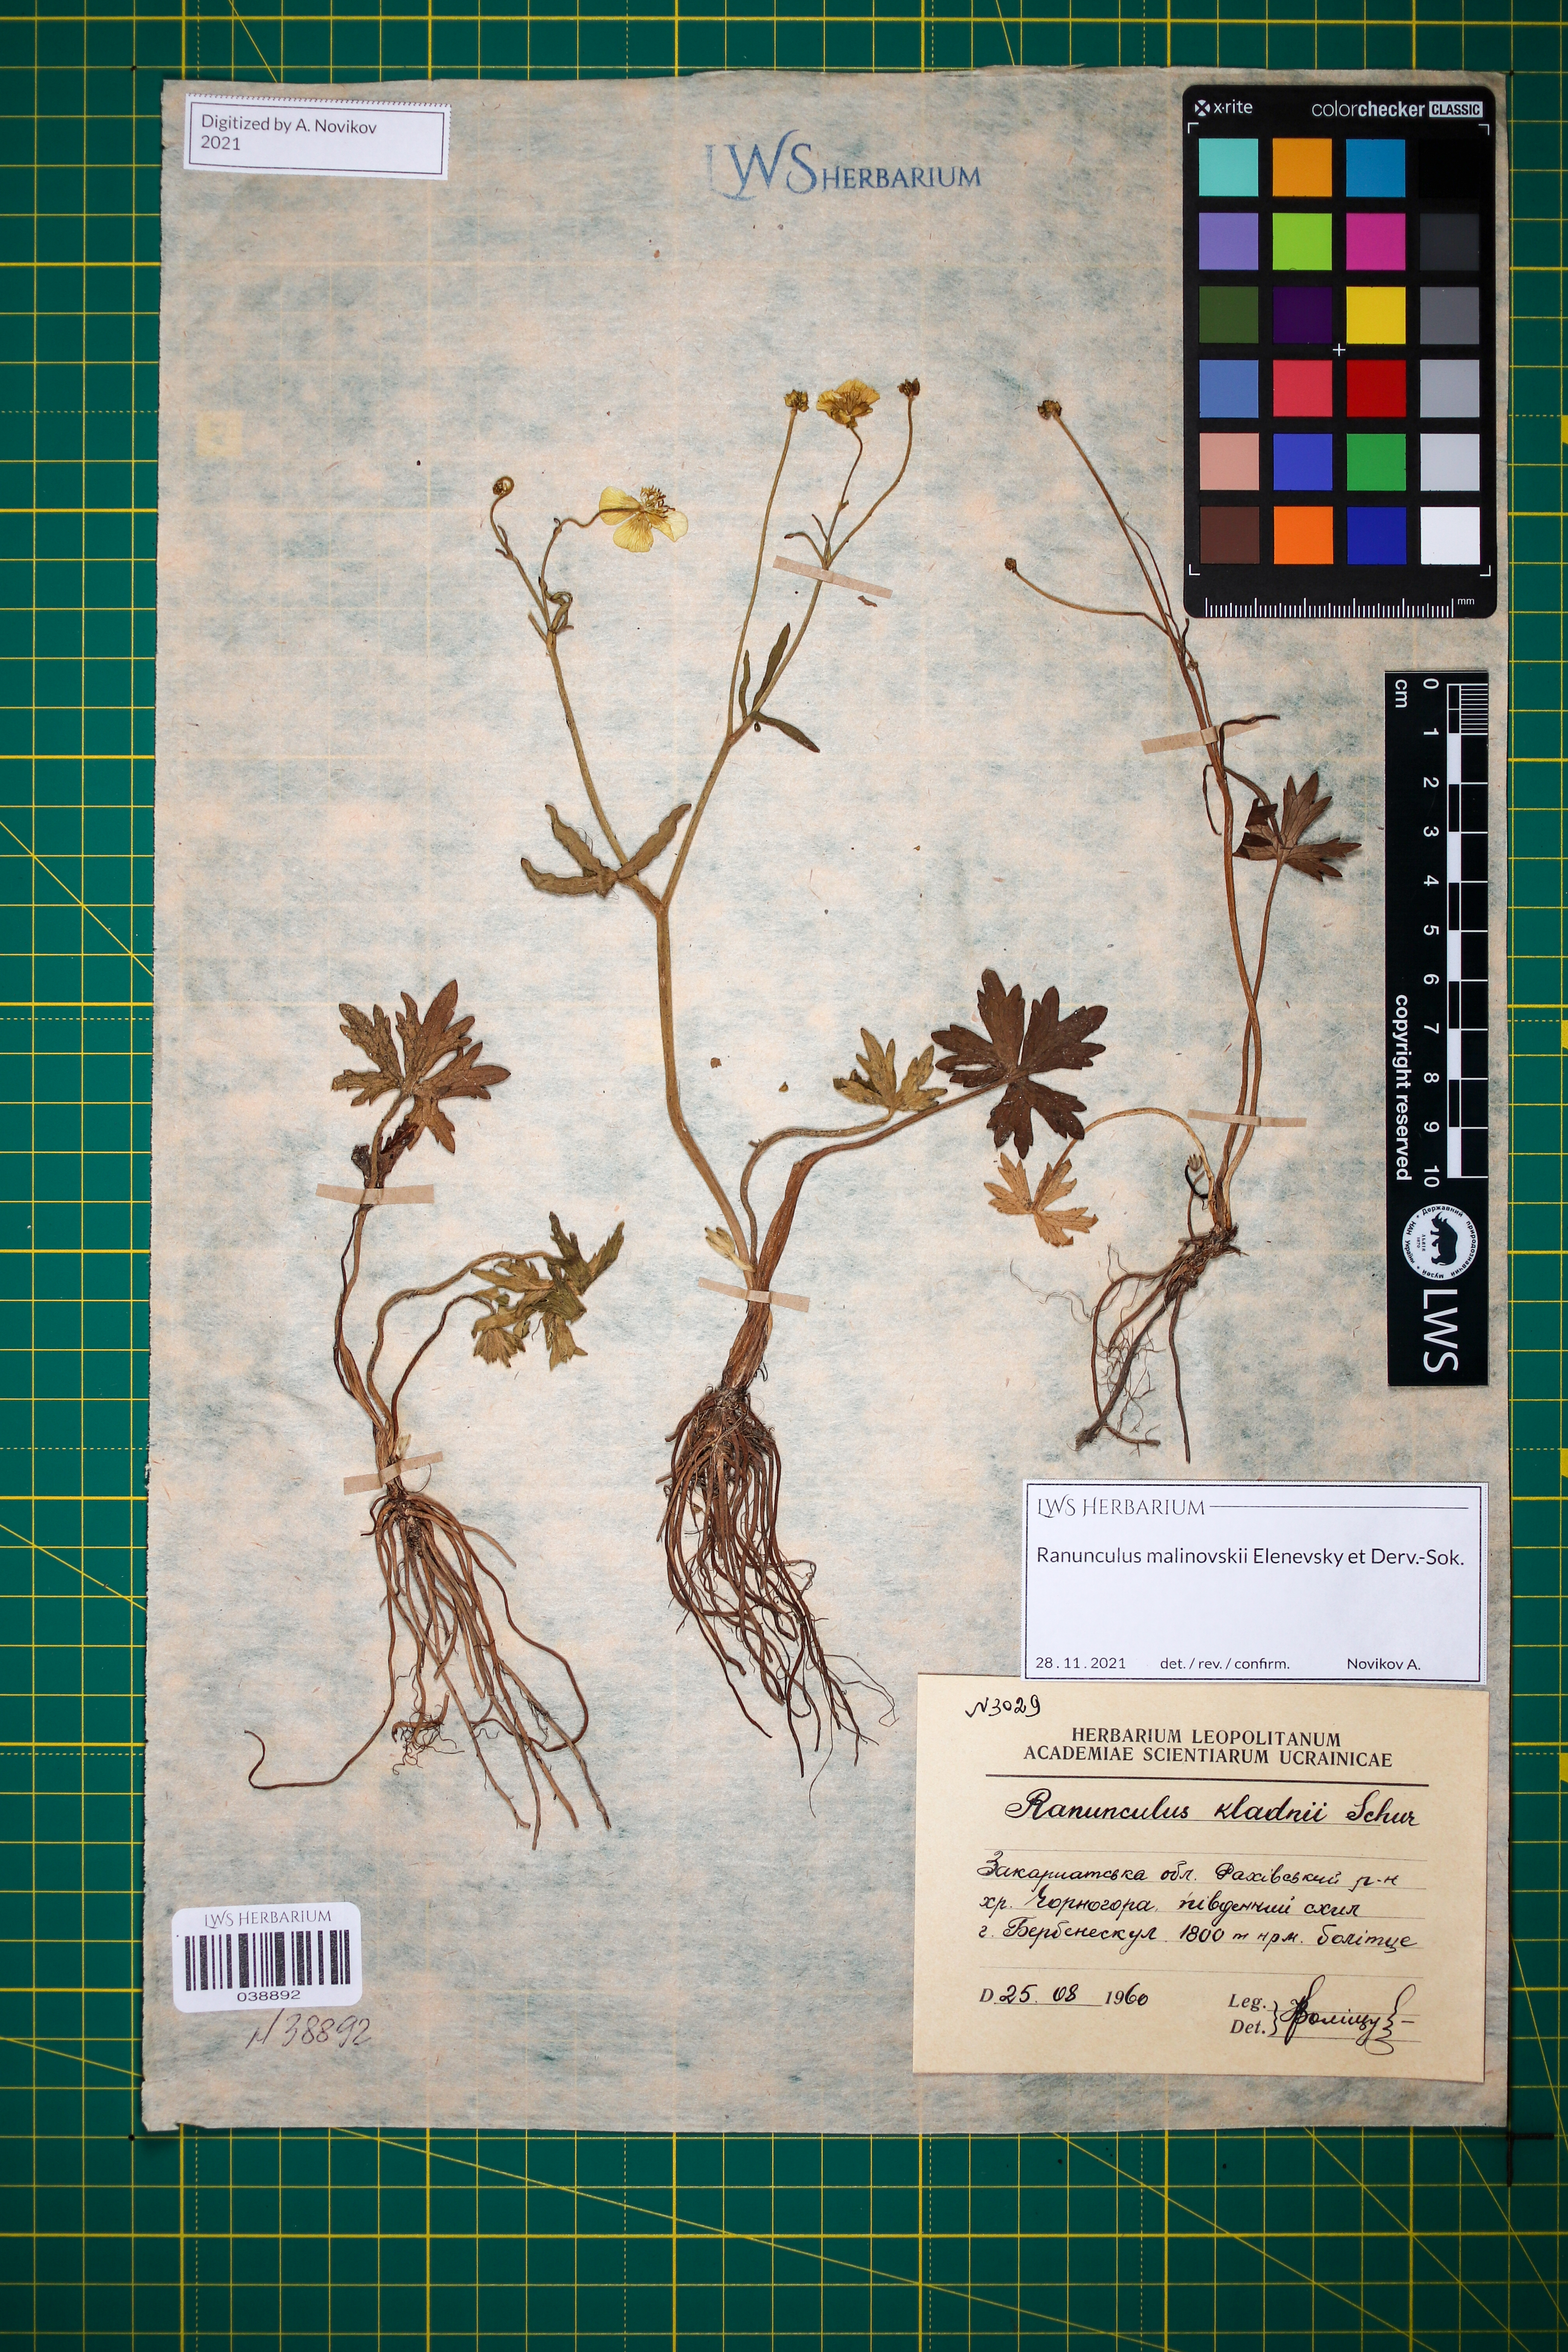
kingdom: Plantae
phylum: Tracheophyta
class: Magnoliopsida
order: Ranunculales
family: Ranunculaceae
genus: Ranunculus
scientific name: Ranunculus malinovskii
